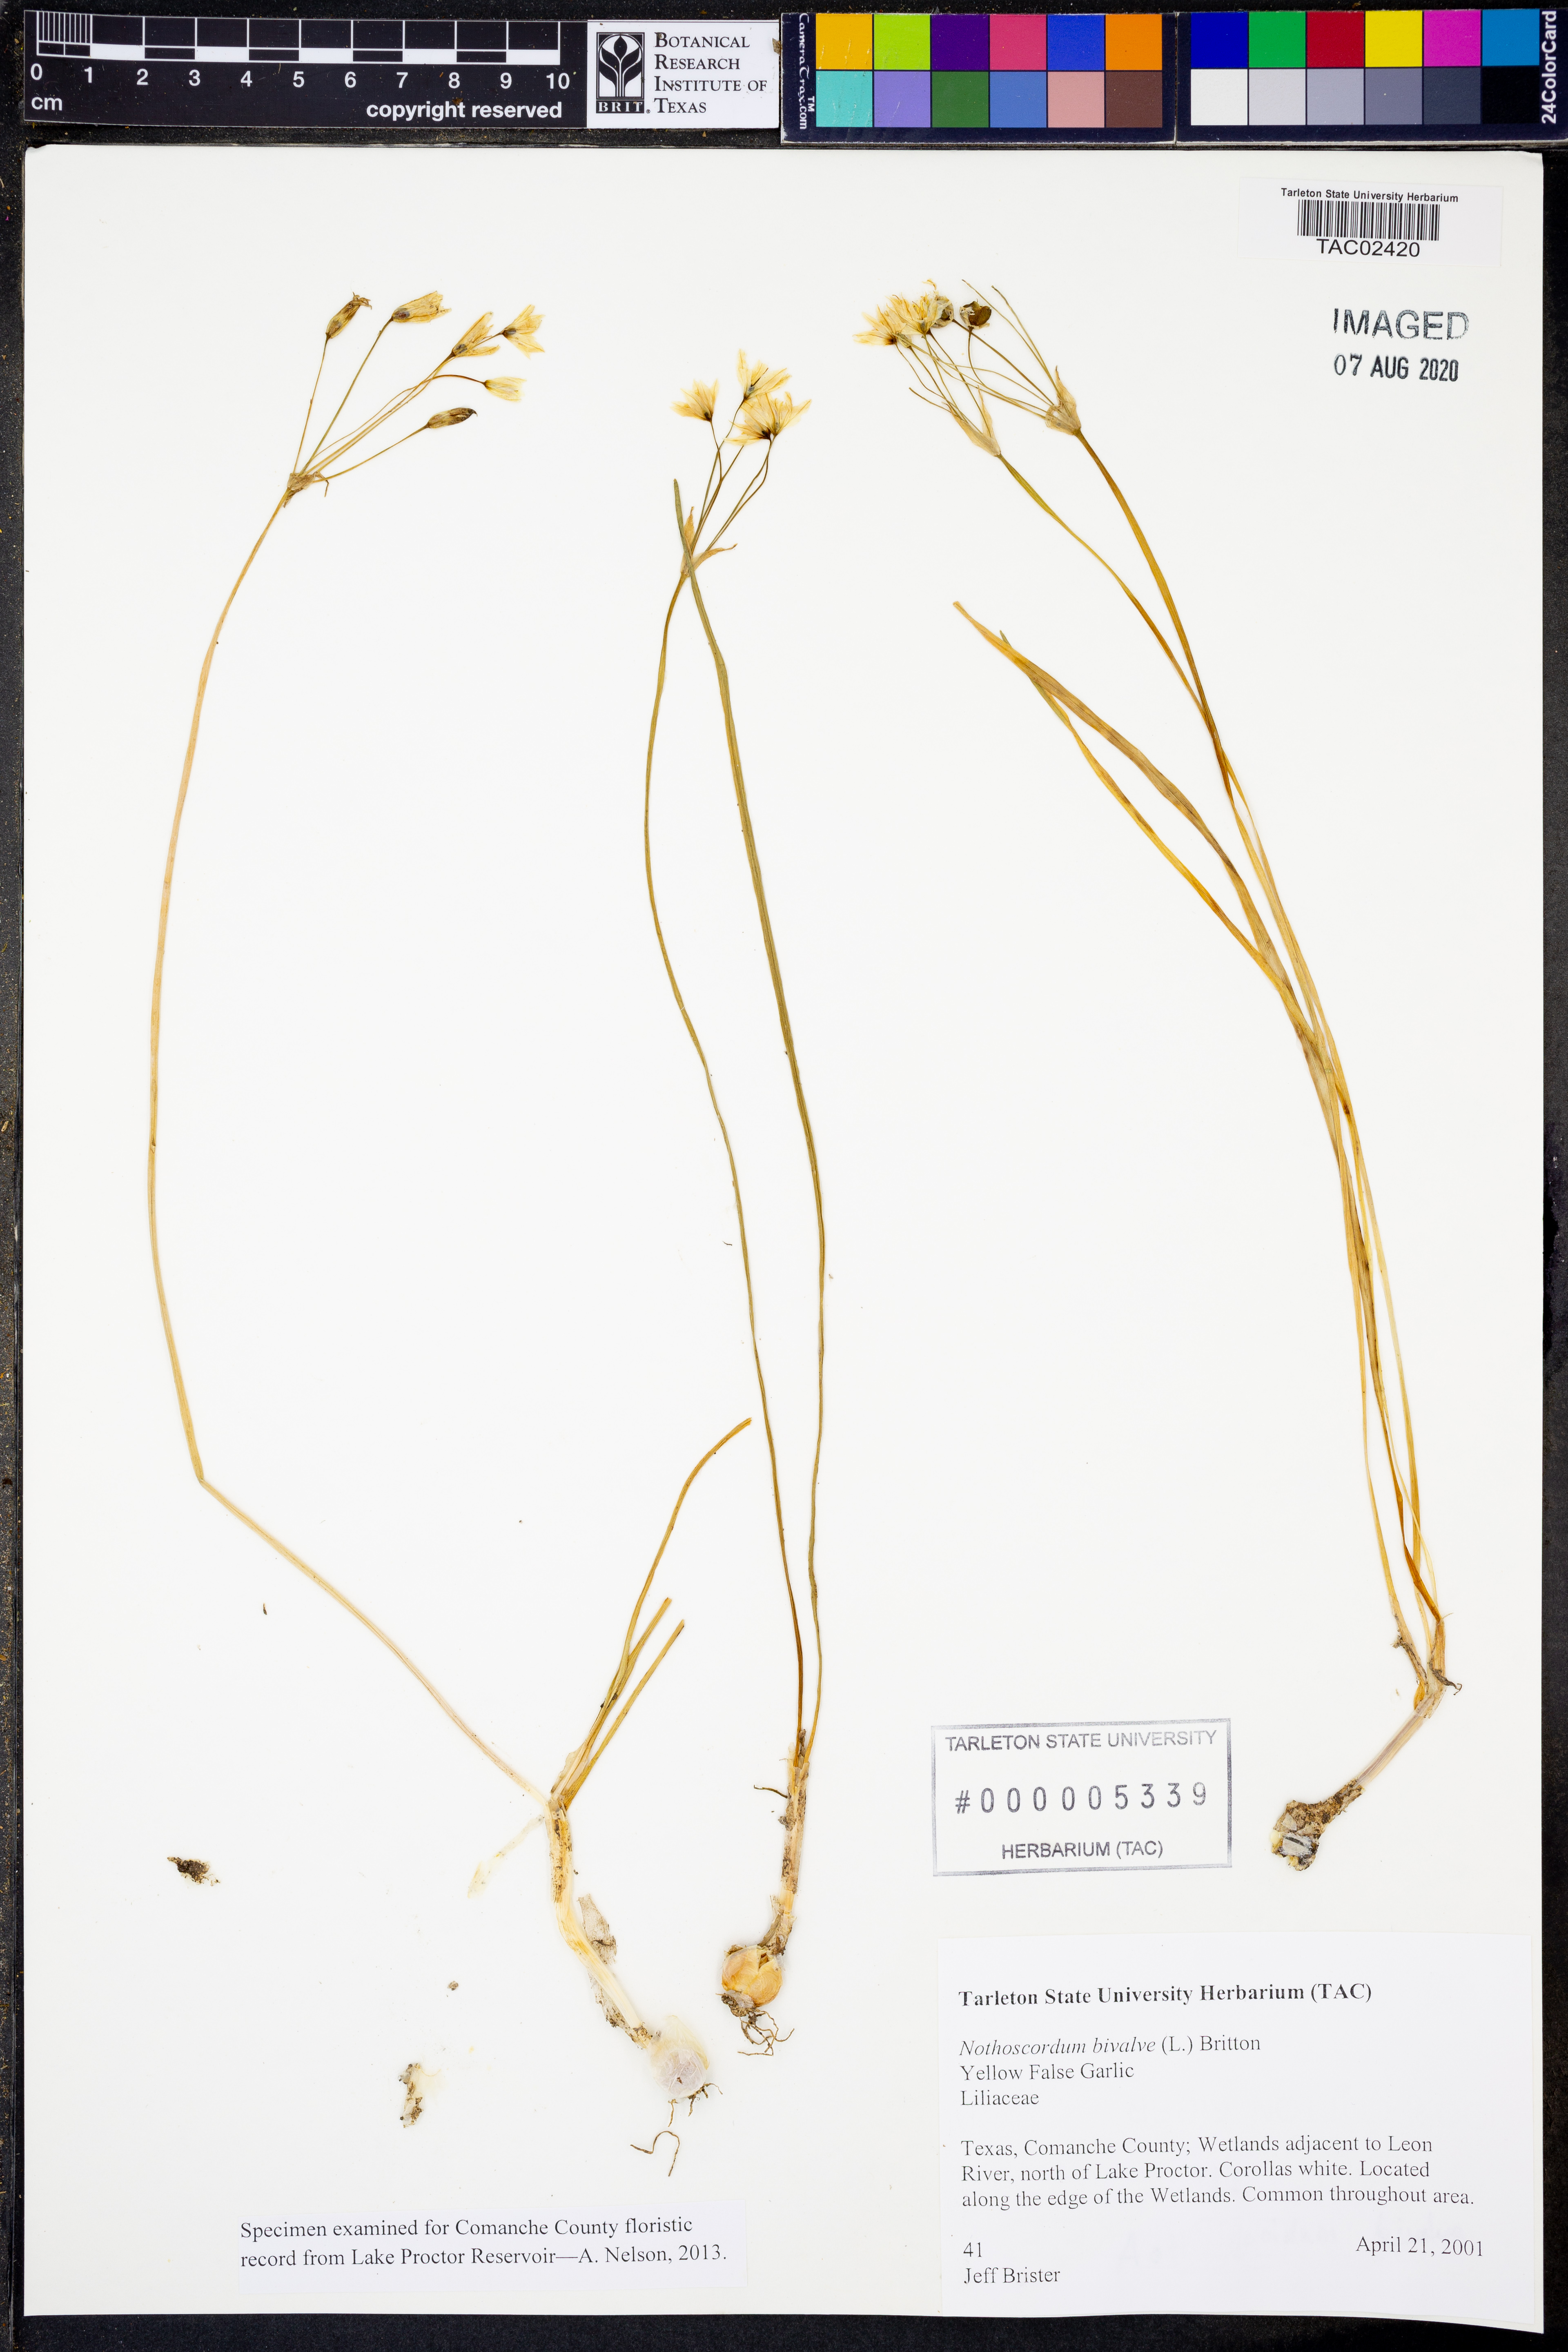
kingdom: Plantae
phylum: Tracheophyta
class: Liliopsida
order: Asparagales
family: Amaryllidaceae
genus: Nothoscordum
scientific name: Nothoscordum bivalve
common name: Crow-poison
